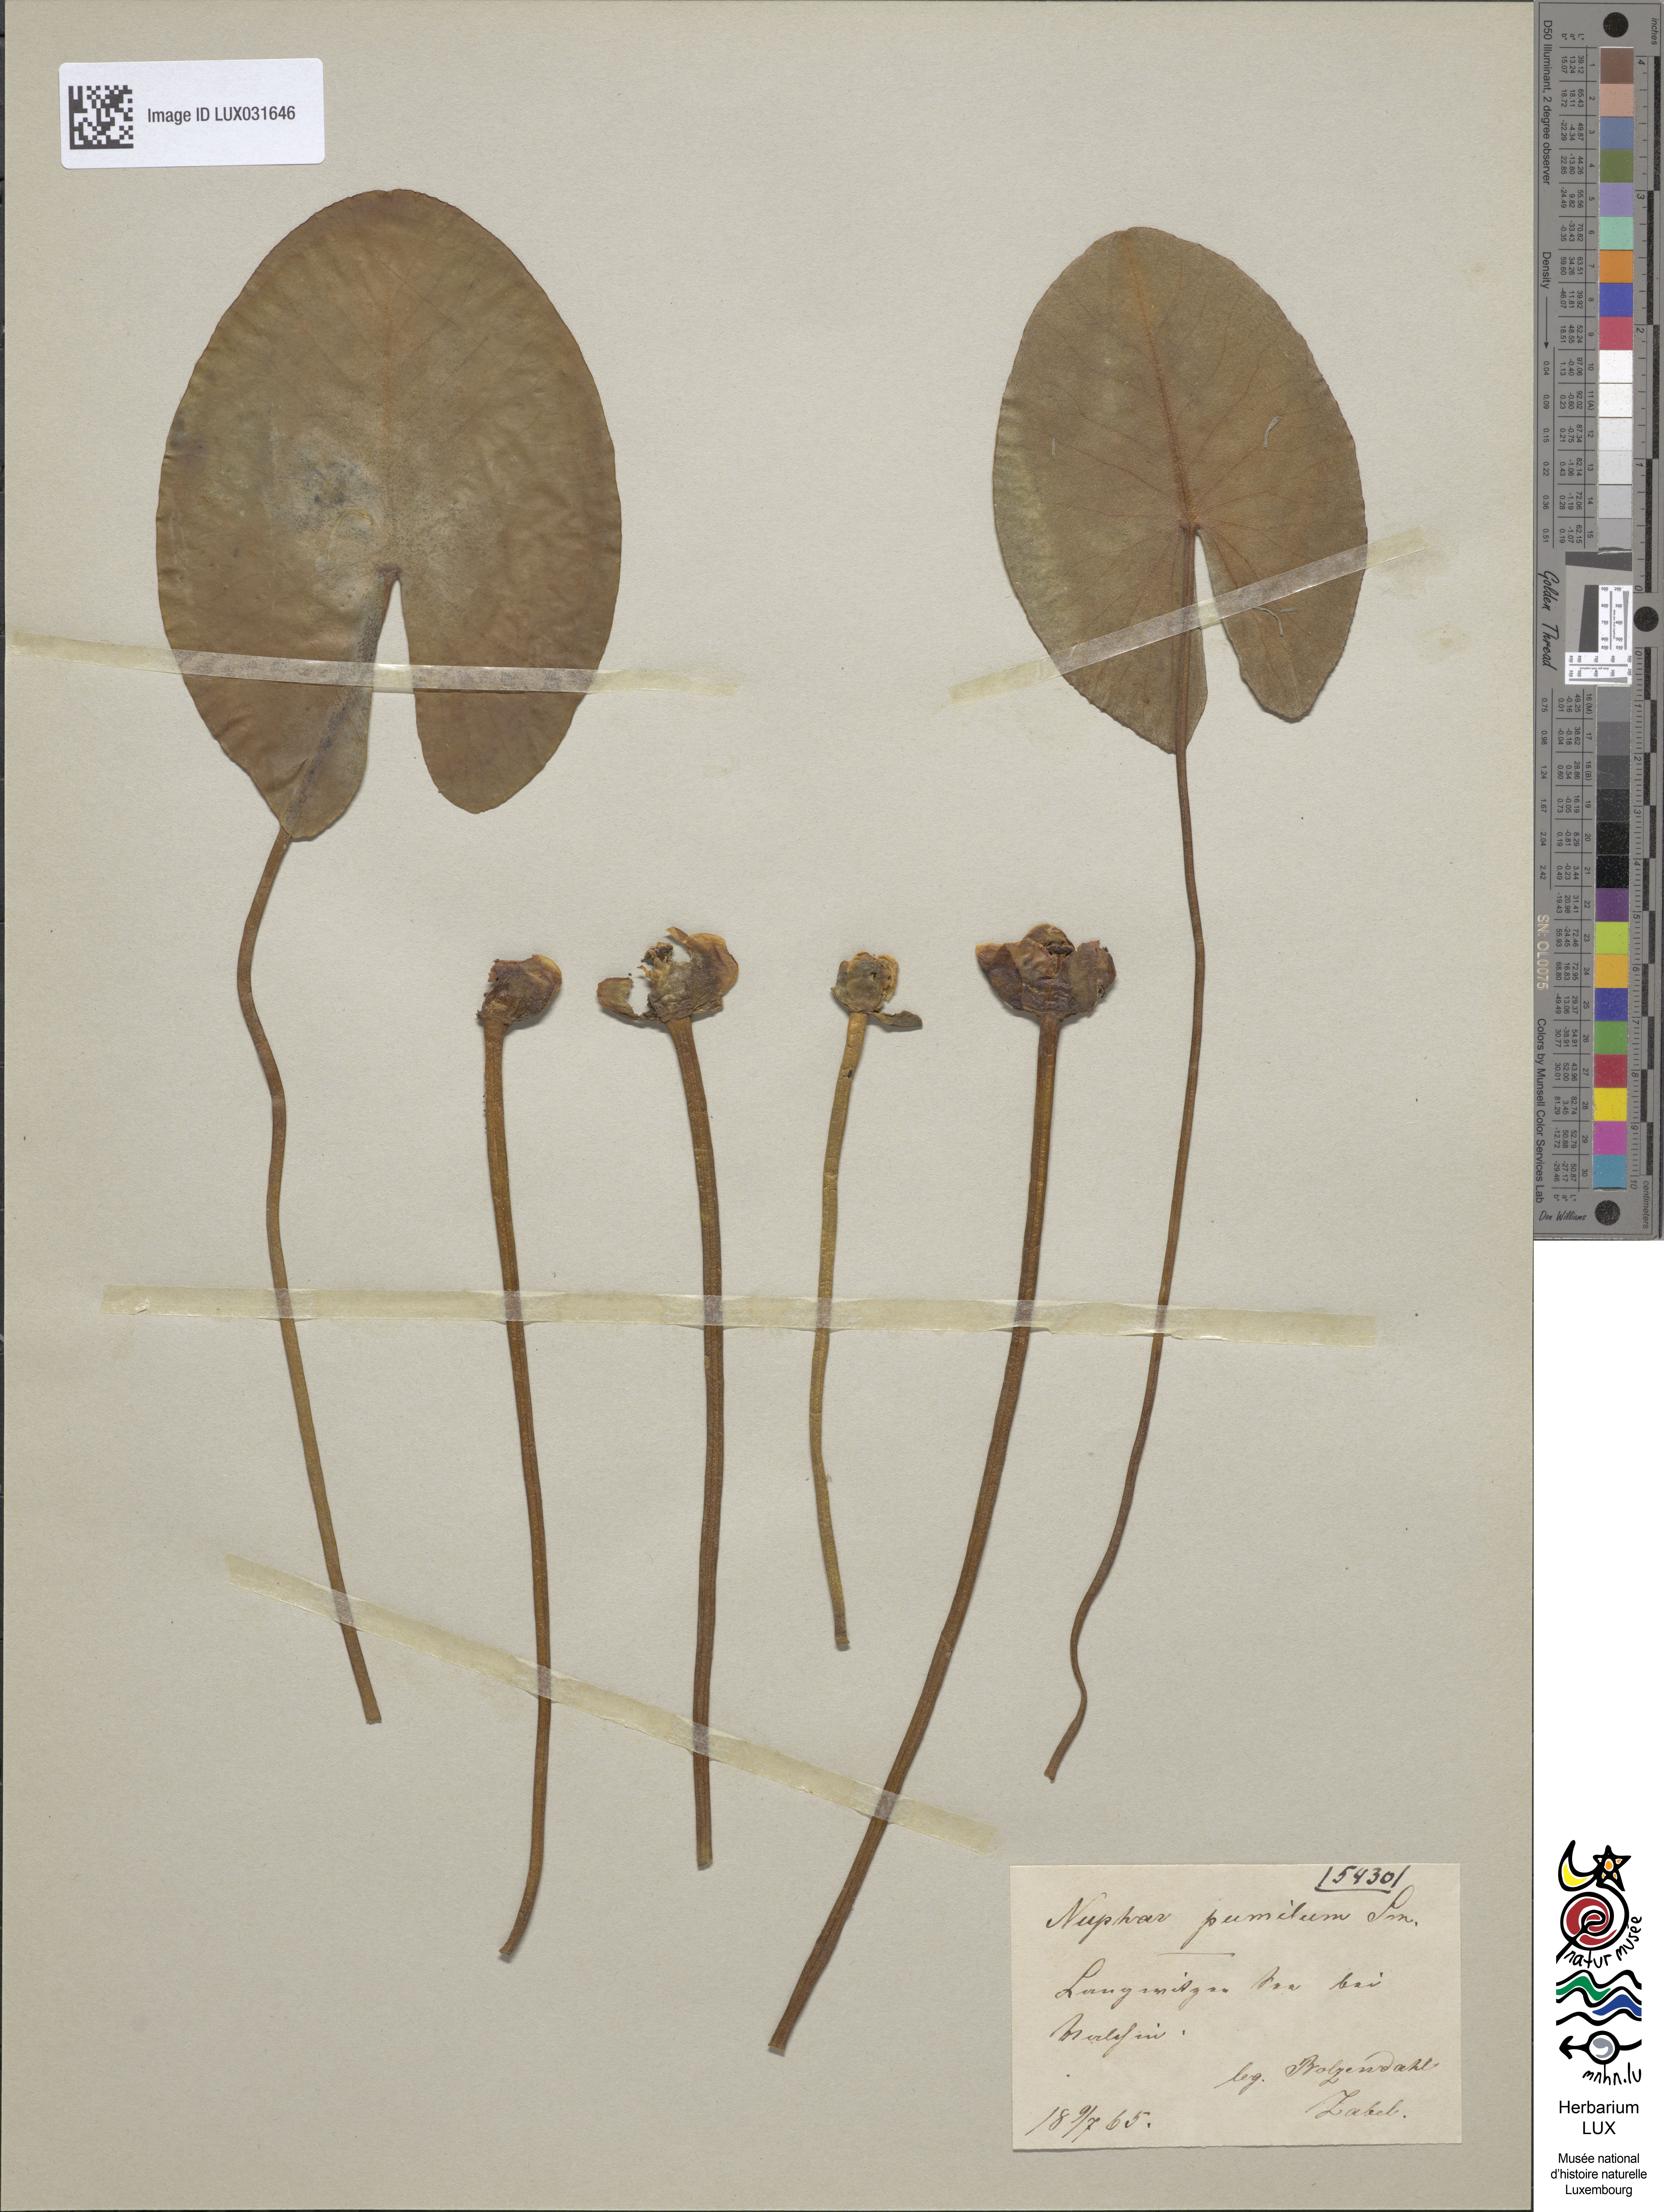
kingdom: Plantae
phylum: Tracheophyta
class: Magnoliopsida
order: Nymphaeales
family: Nymphaeaceae
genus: Nuphar
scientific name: Nuphar pumila
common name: Least water-lily
